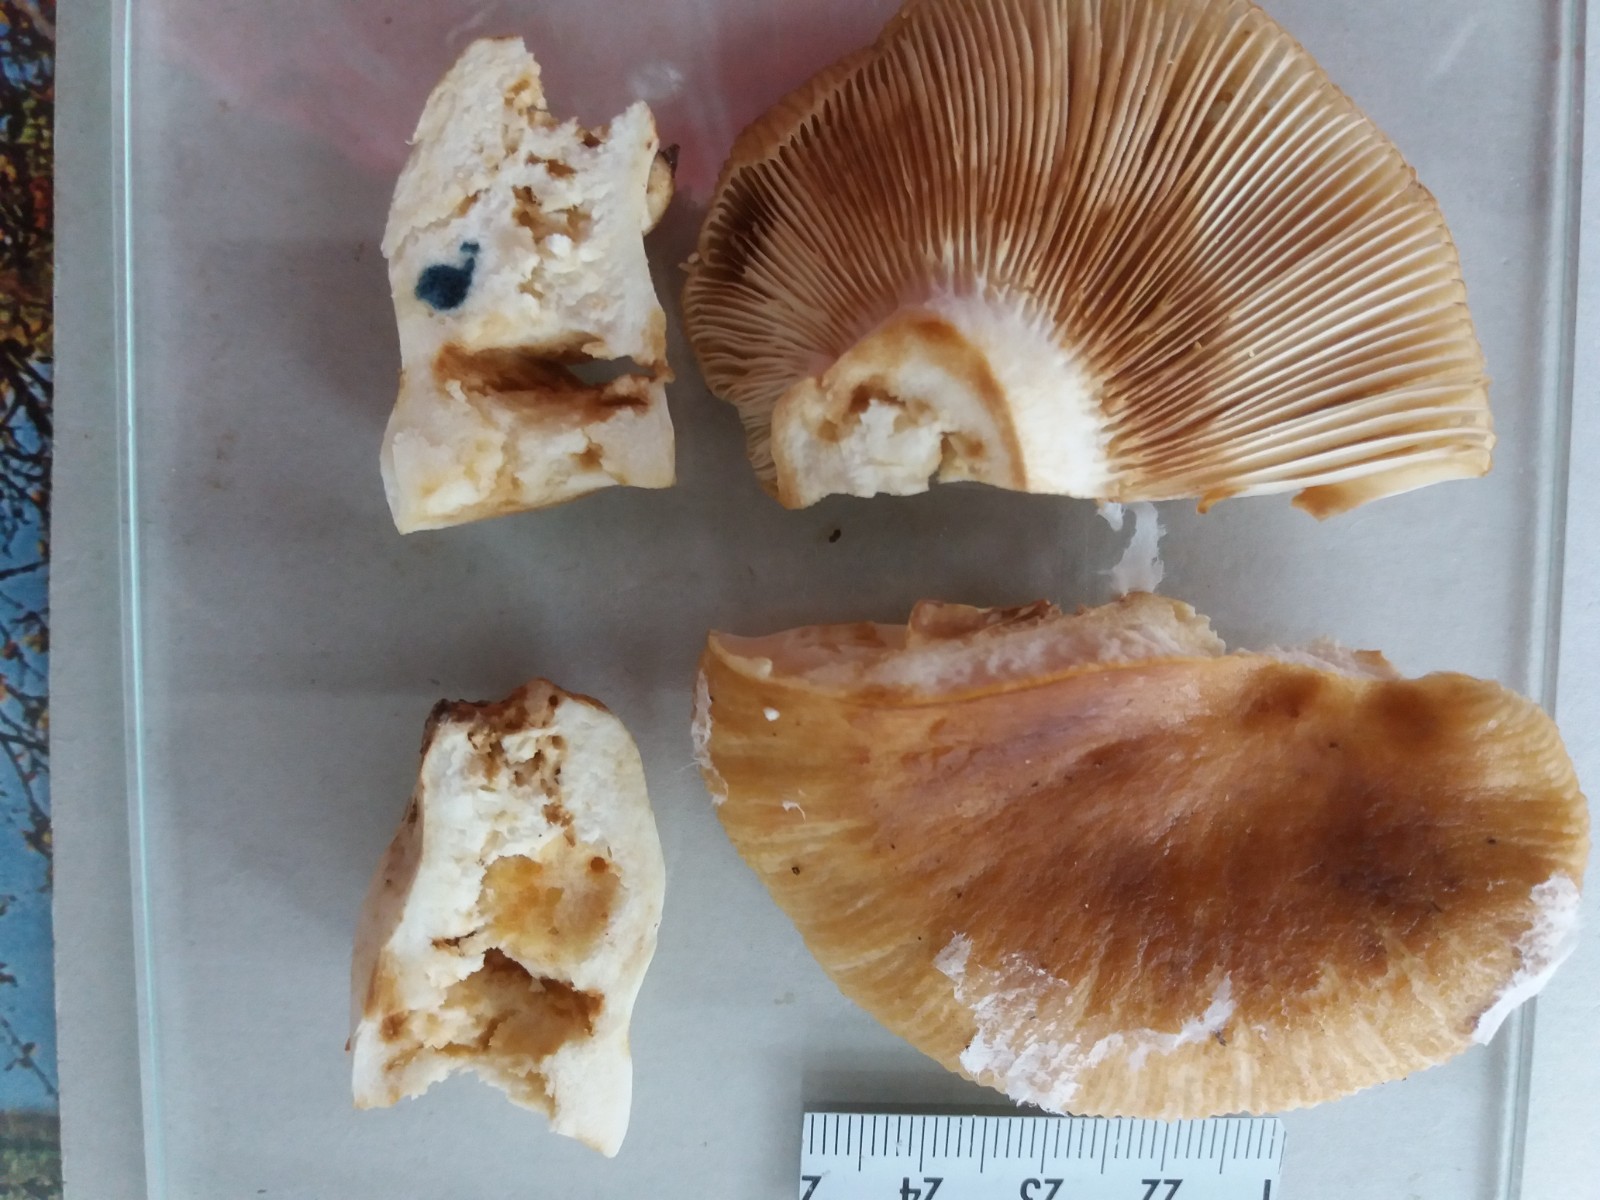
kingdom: Fungi
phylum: Basidiomycota
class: Agaricomycetes
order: Russulales
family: Russulaceae
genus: Russula
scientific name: Russula foetens
